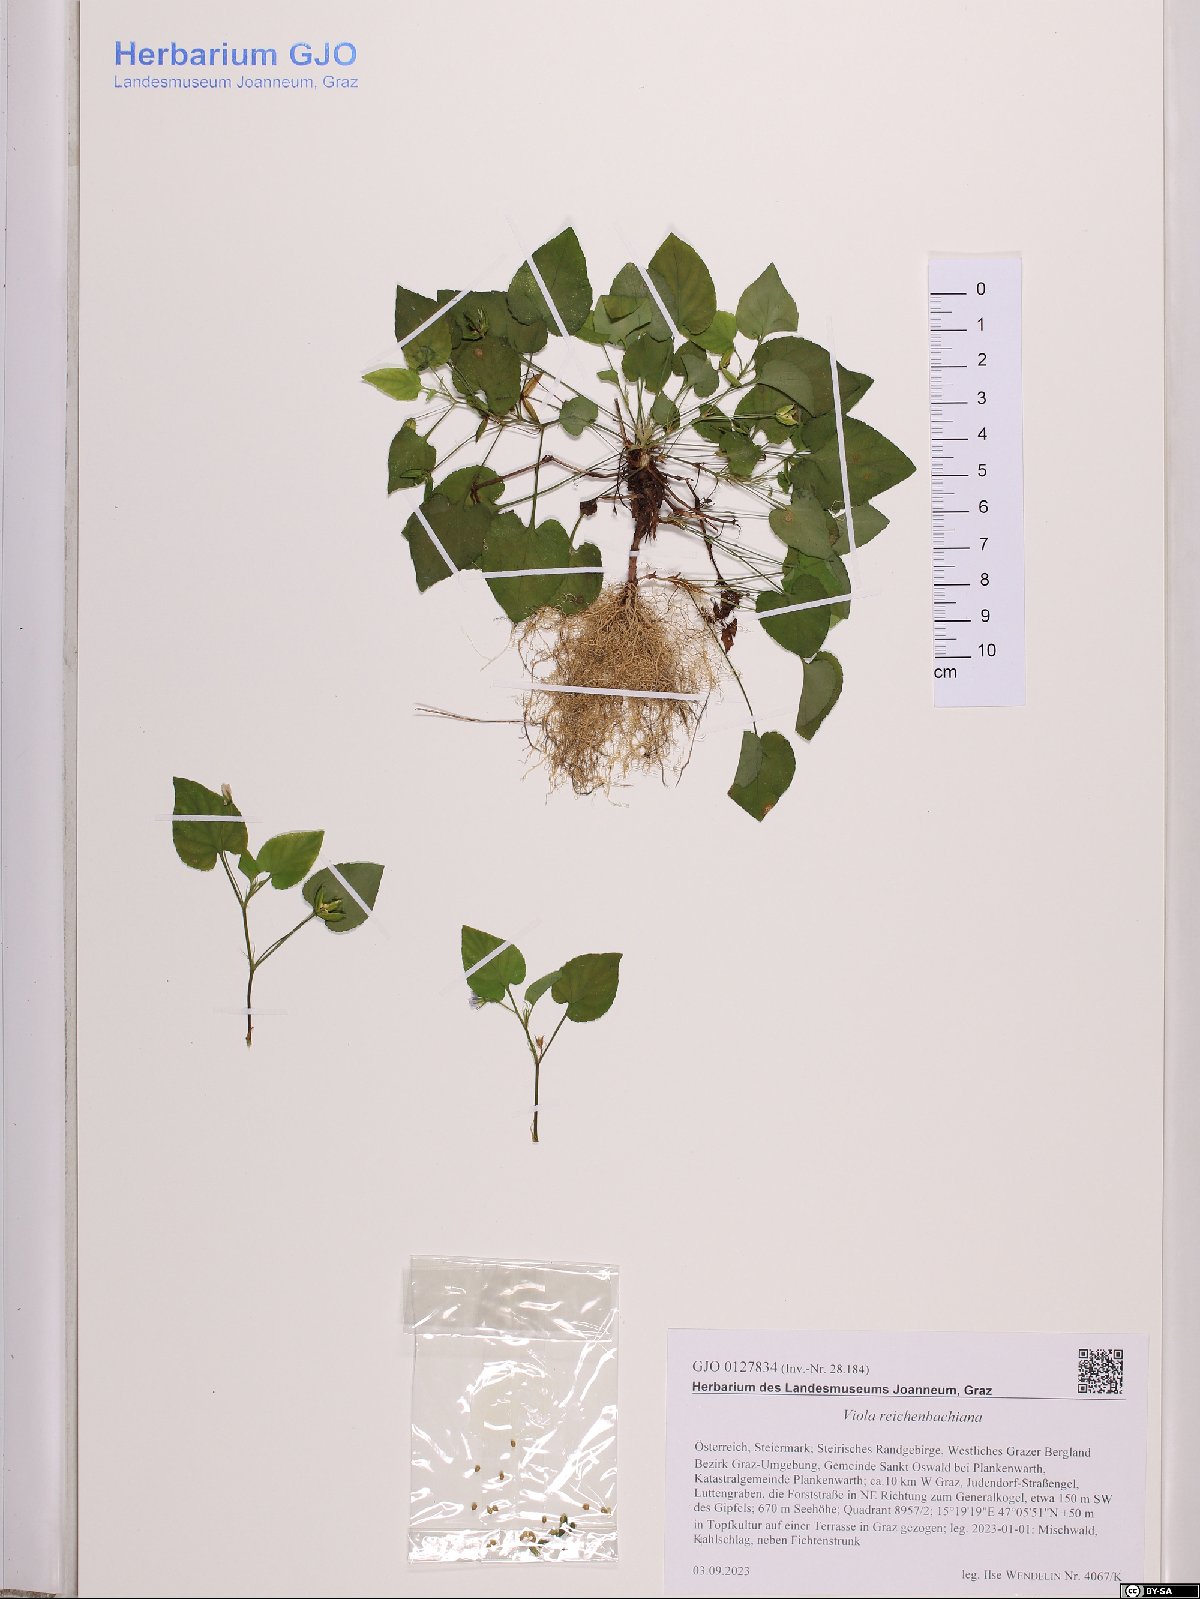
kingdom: Plantae
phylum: Tracheophyta
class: Magnoliopsida
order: Malpighiales
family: Violaceae
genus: Viola
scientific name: Viola reichenbachiana
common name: Early dog-violet
